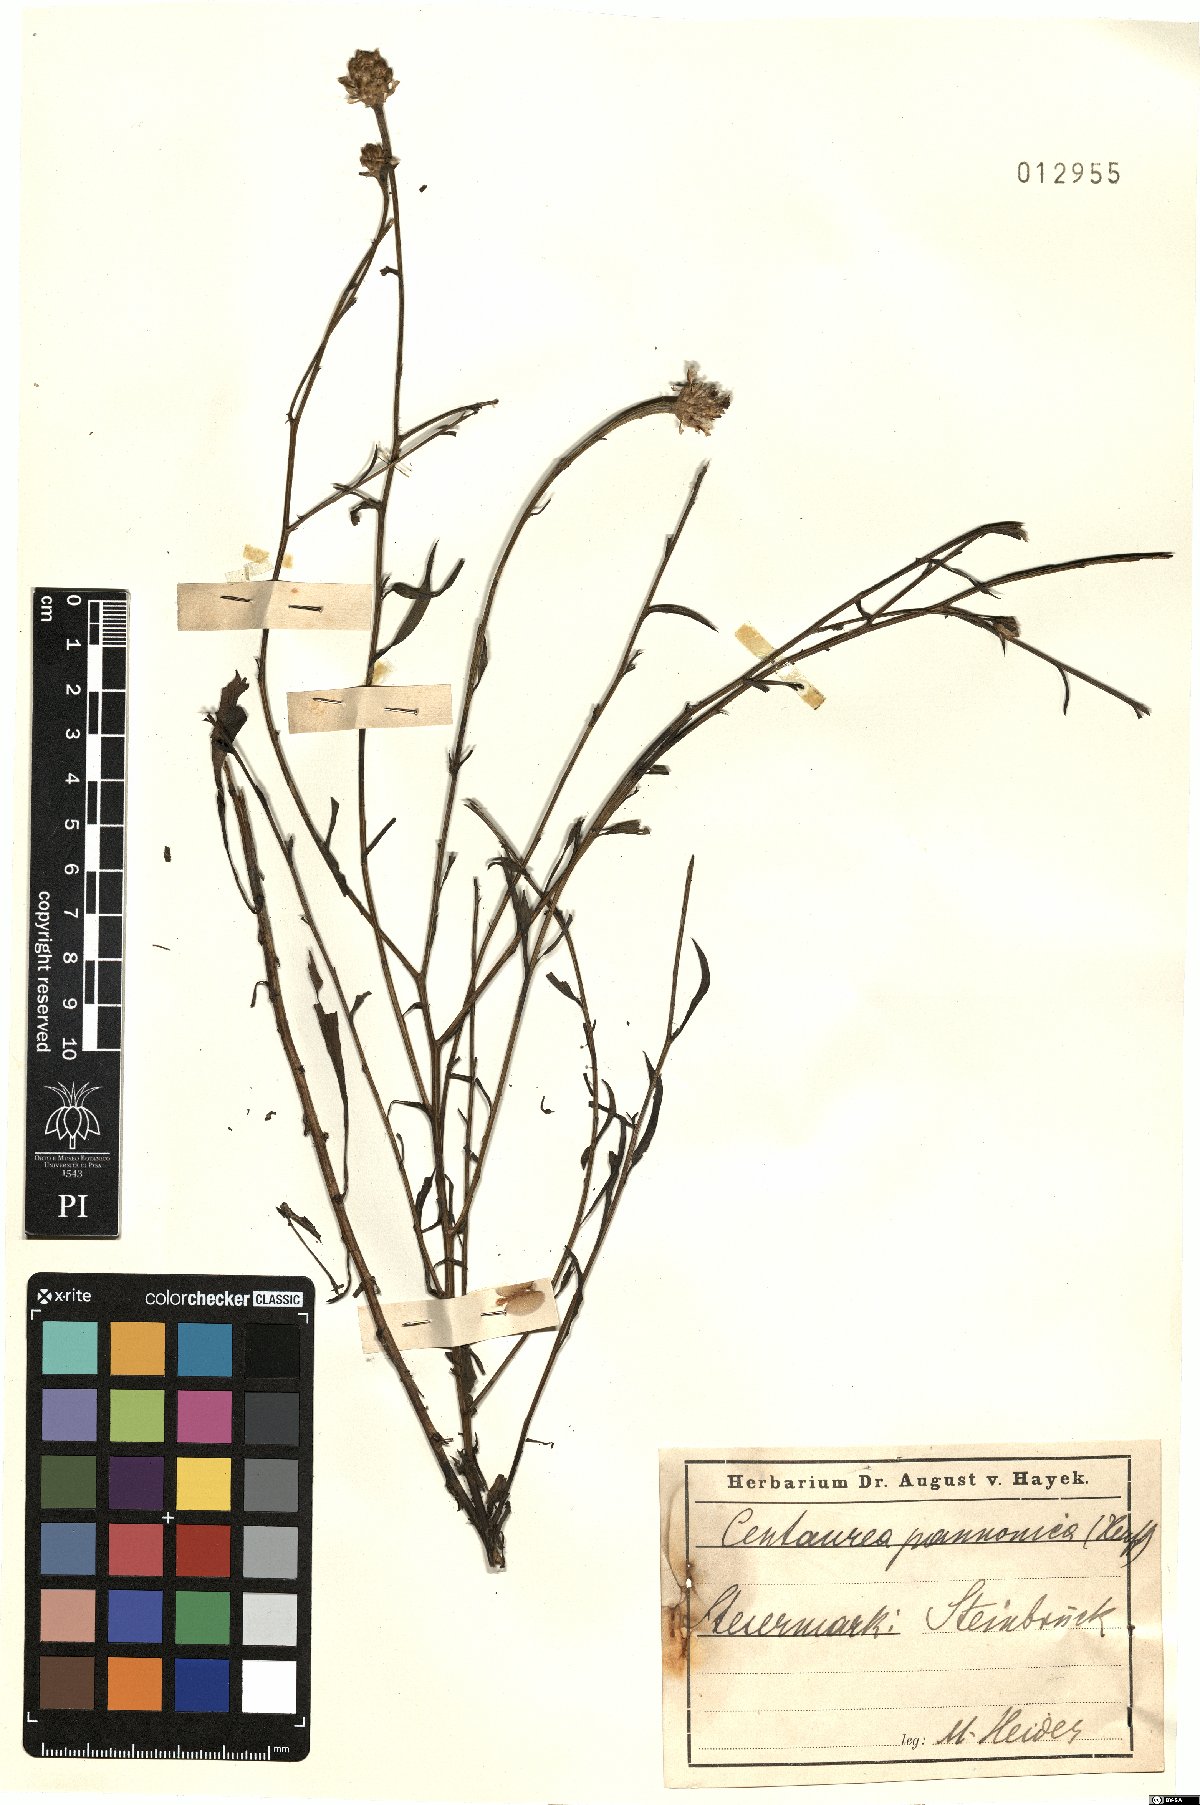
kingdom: Plantae
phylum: Tracheophyta
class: Magnoliopsida
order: Asterales
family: Asteraceae
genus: Centaurea
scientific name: Centaurea pannonica
